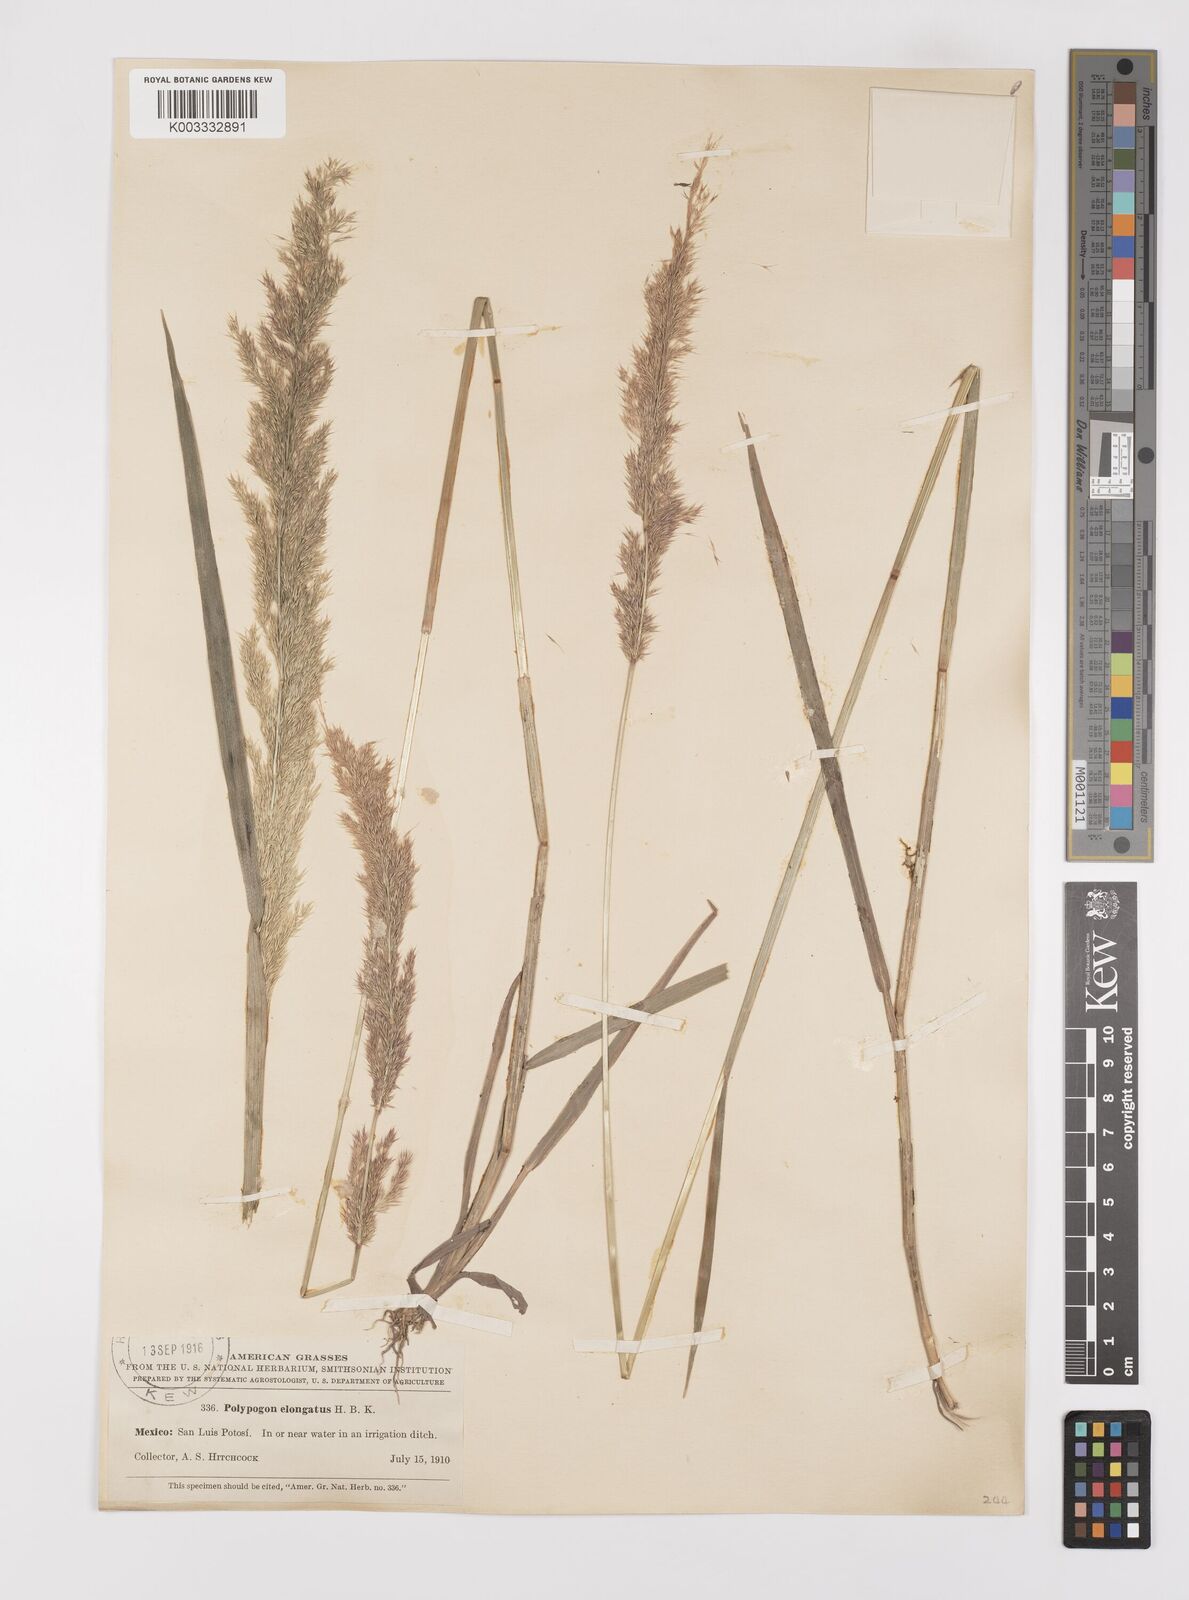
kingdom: Plantae
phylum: Tracheophyta
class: Liliopsida
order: Poales
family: Poaceae
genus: Polypogon
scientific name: Polypogon elongatus
